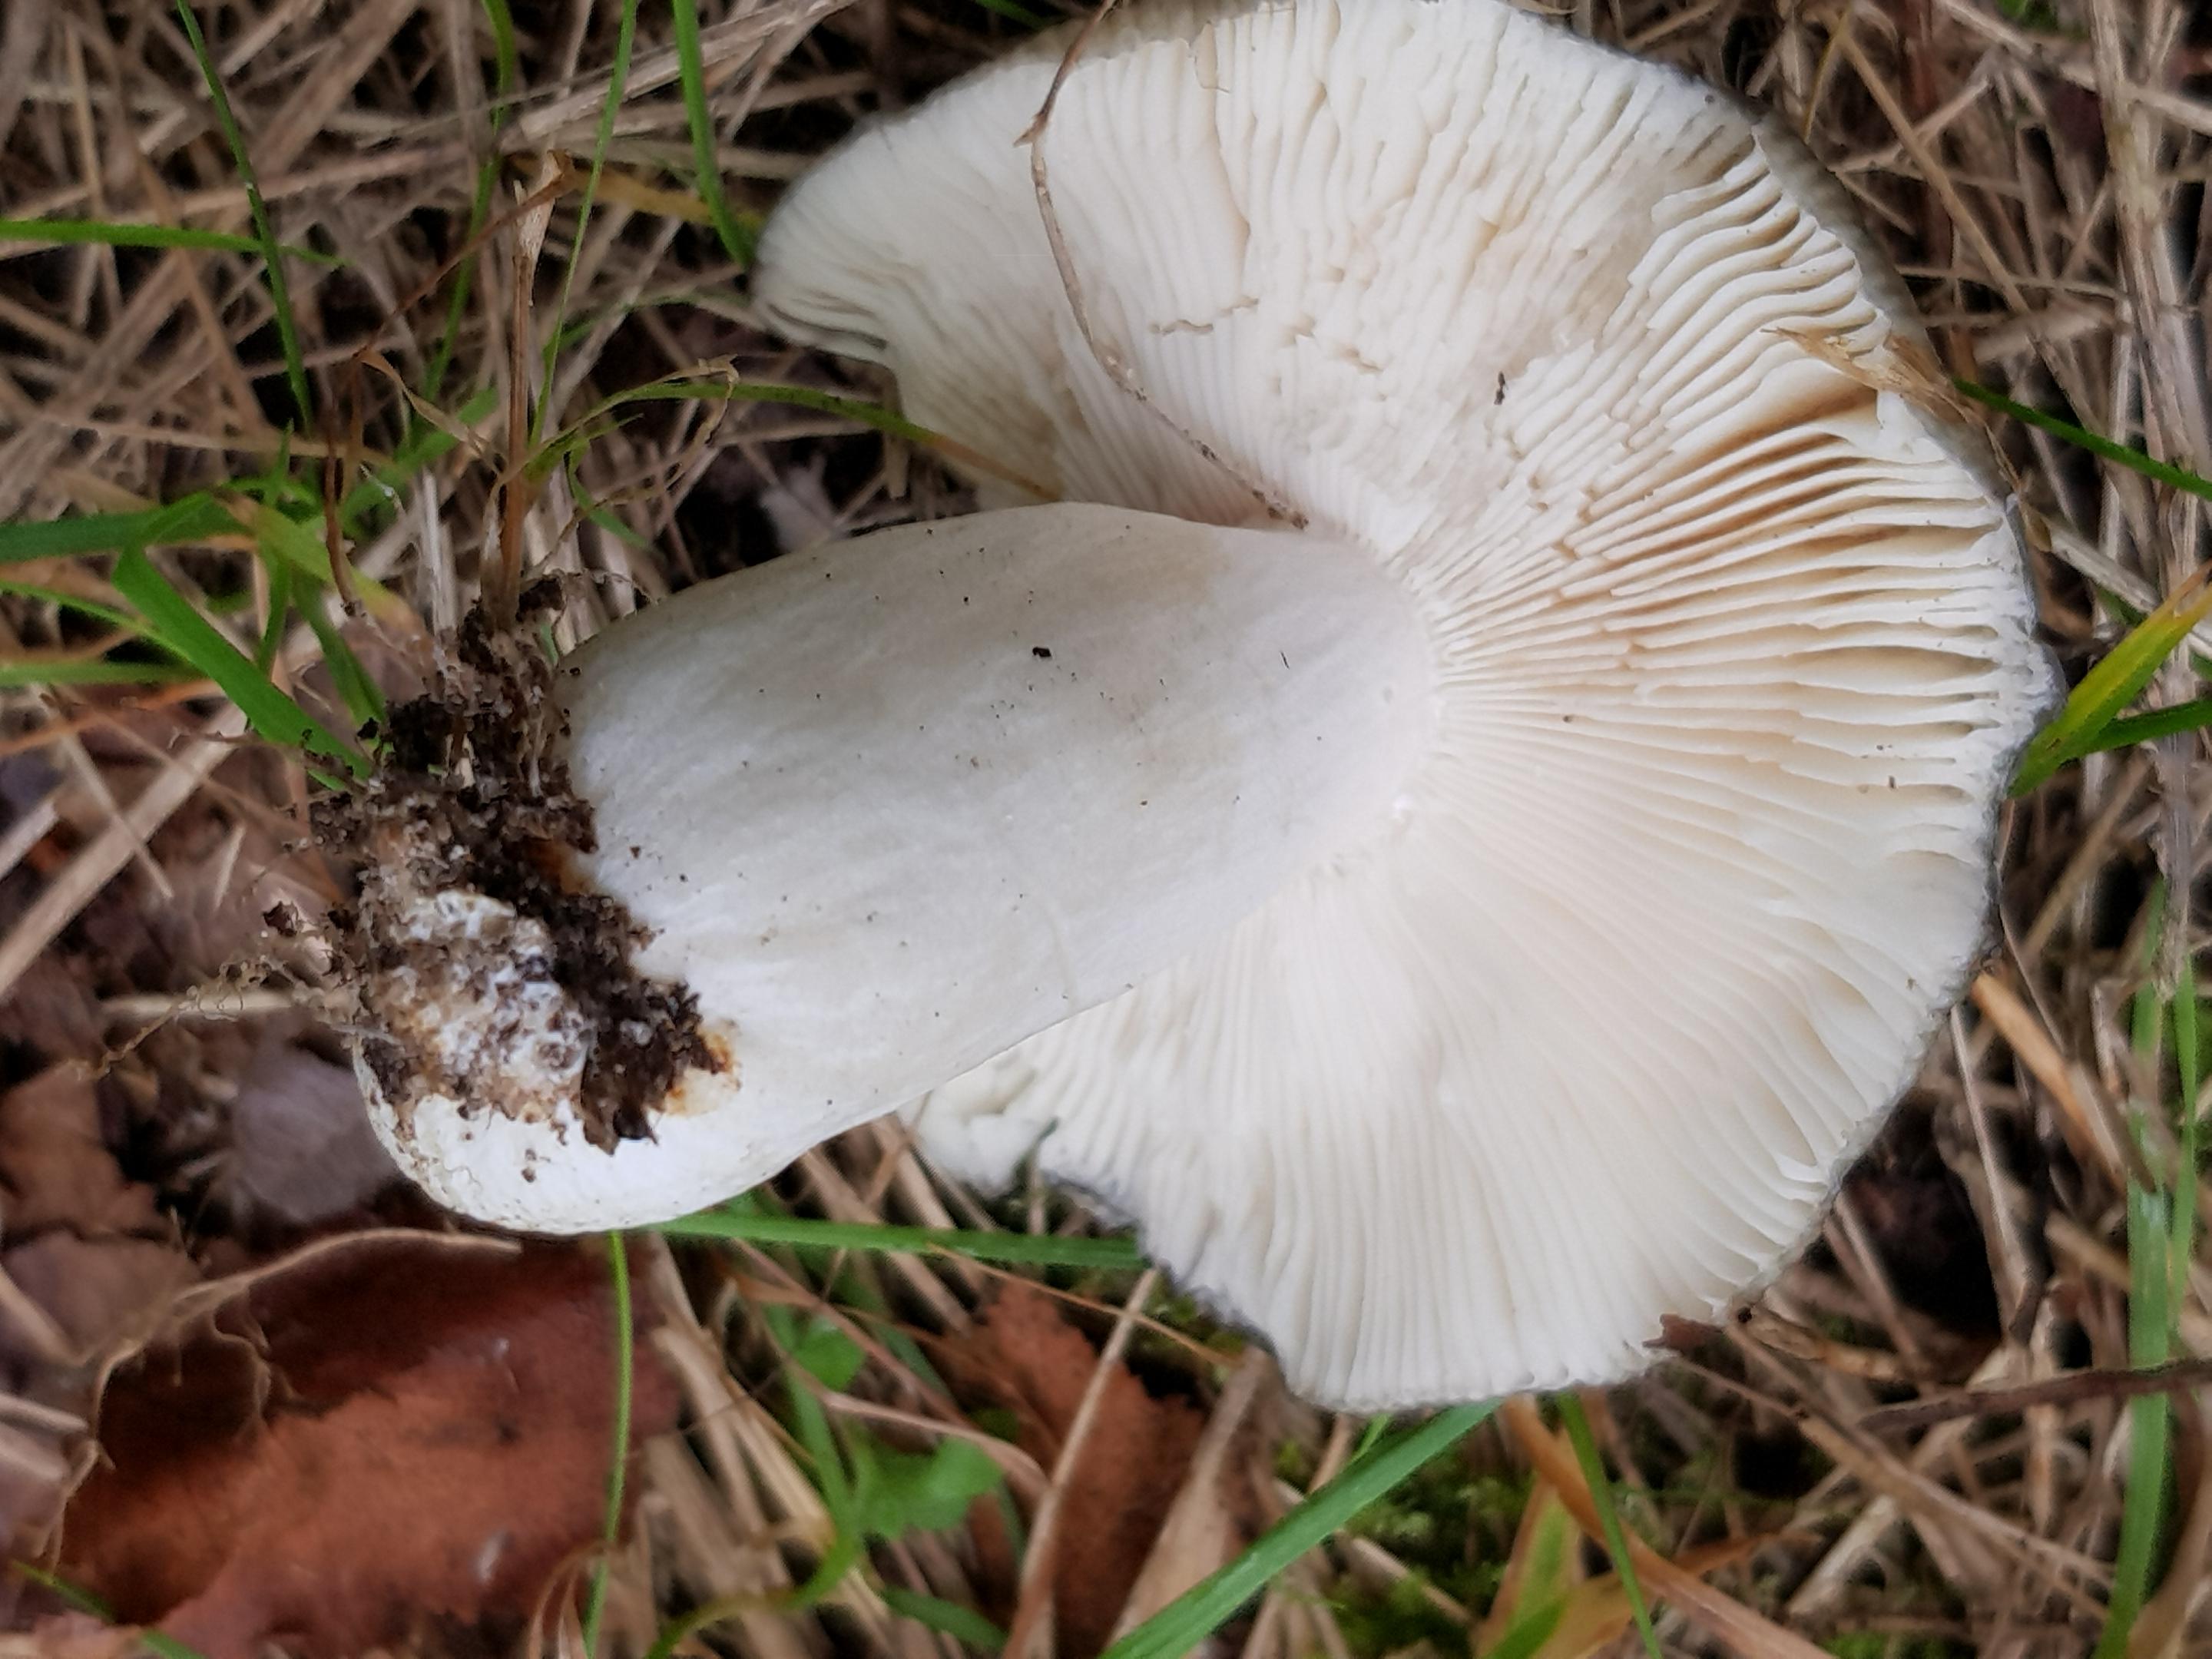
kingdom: Fungi
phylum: Basidiomycota
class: Agaricomycetes
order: Russulales
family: Russulaceae
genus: Russula
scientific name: Russula
